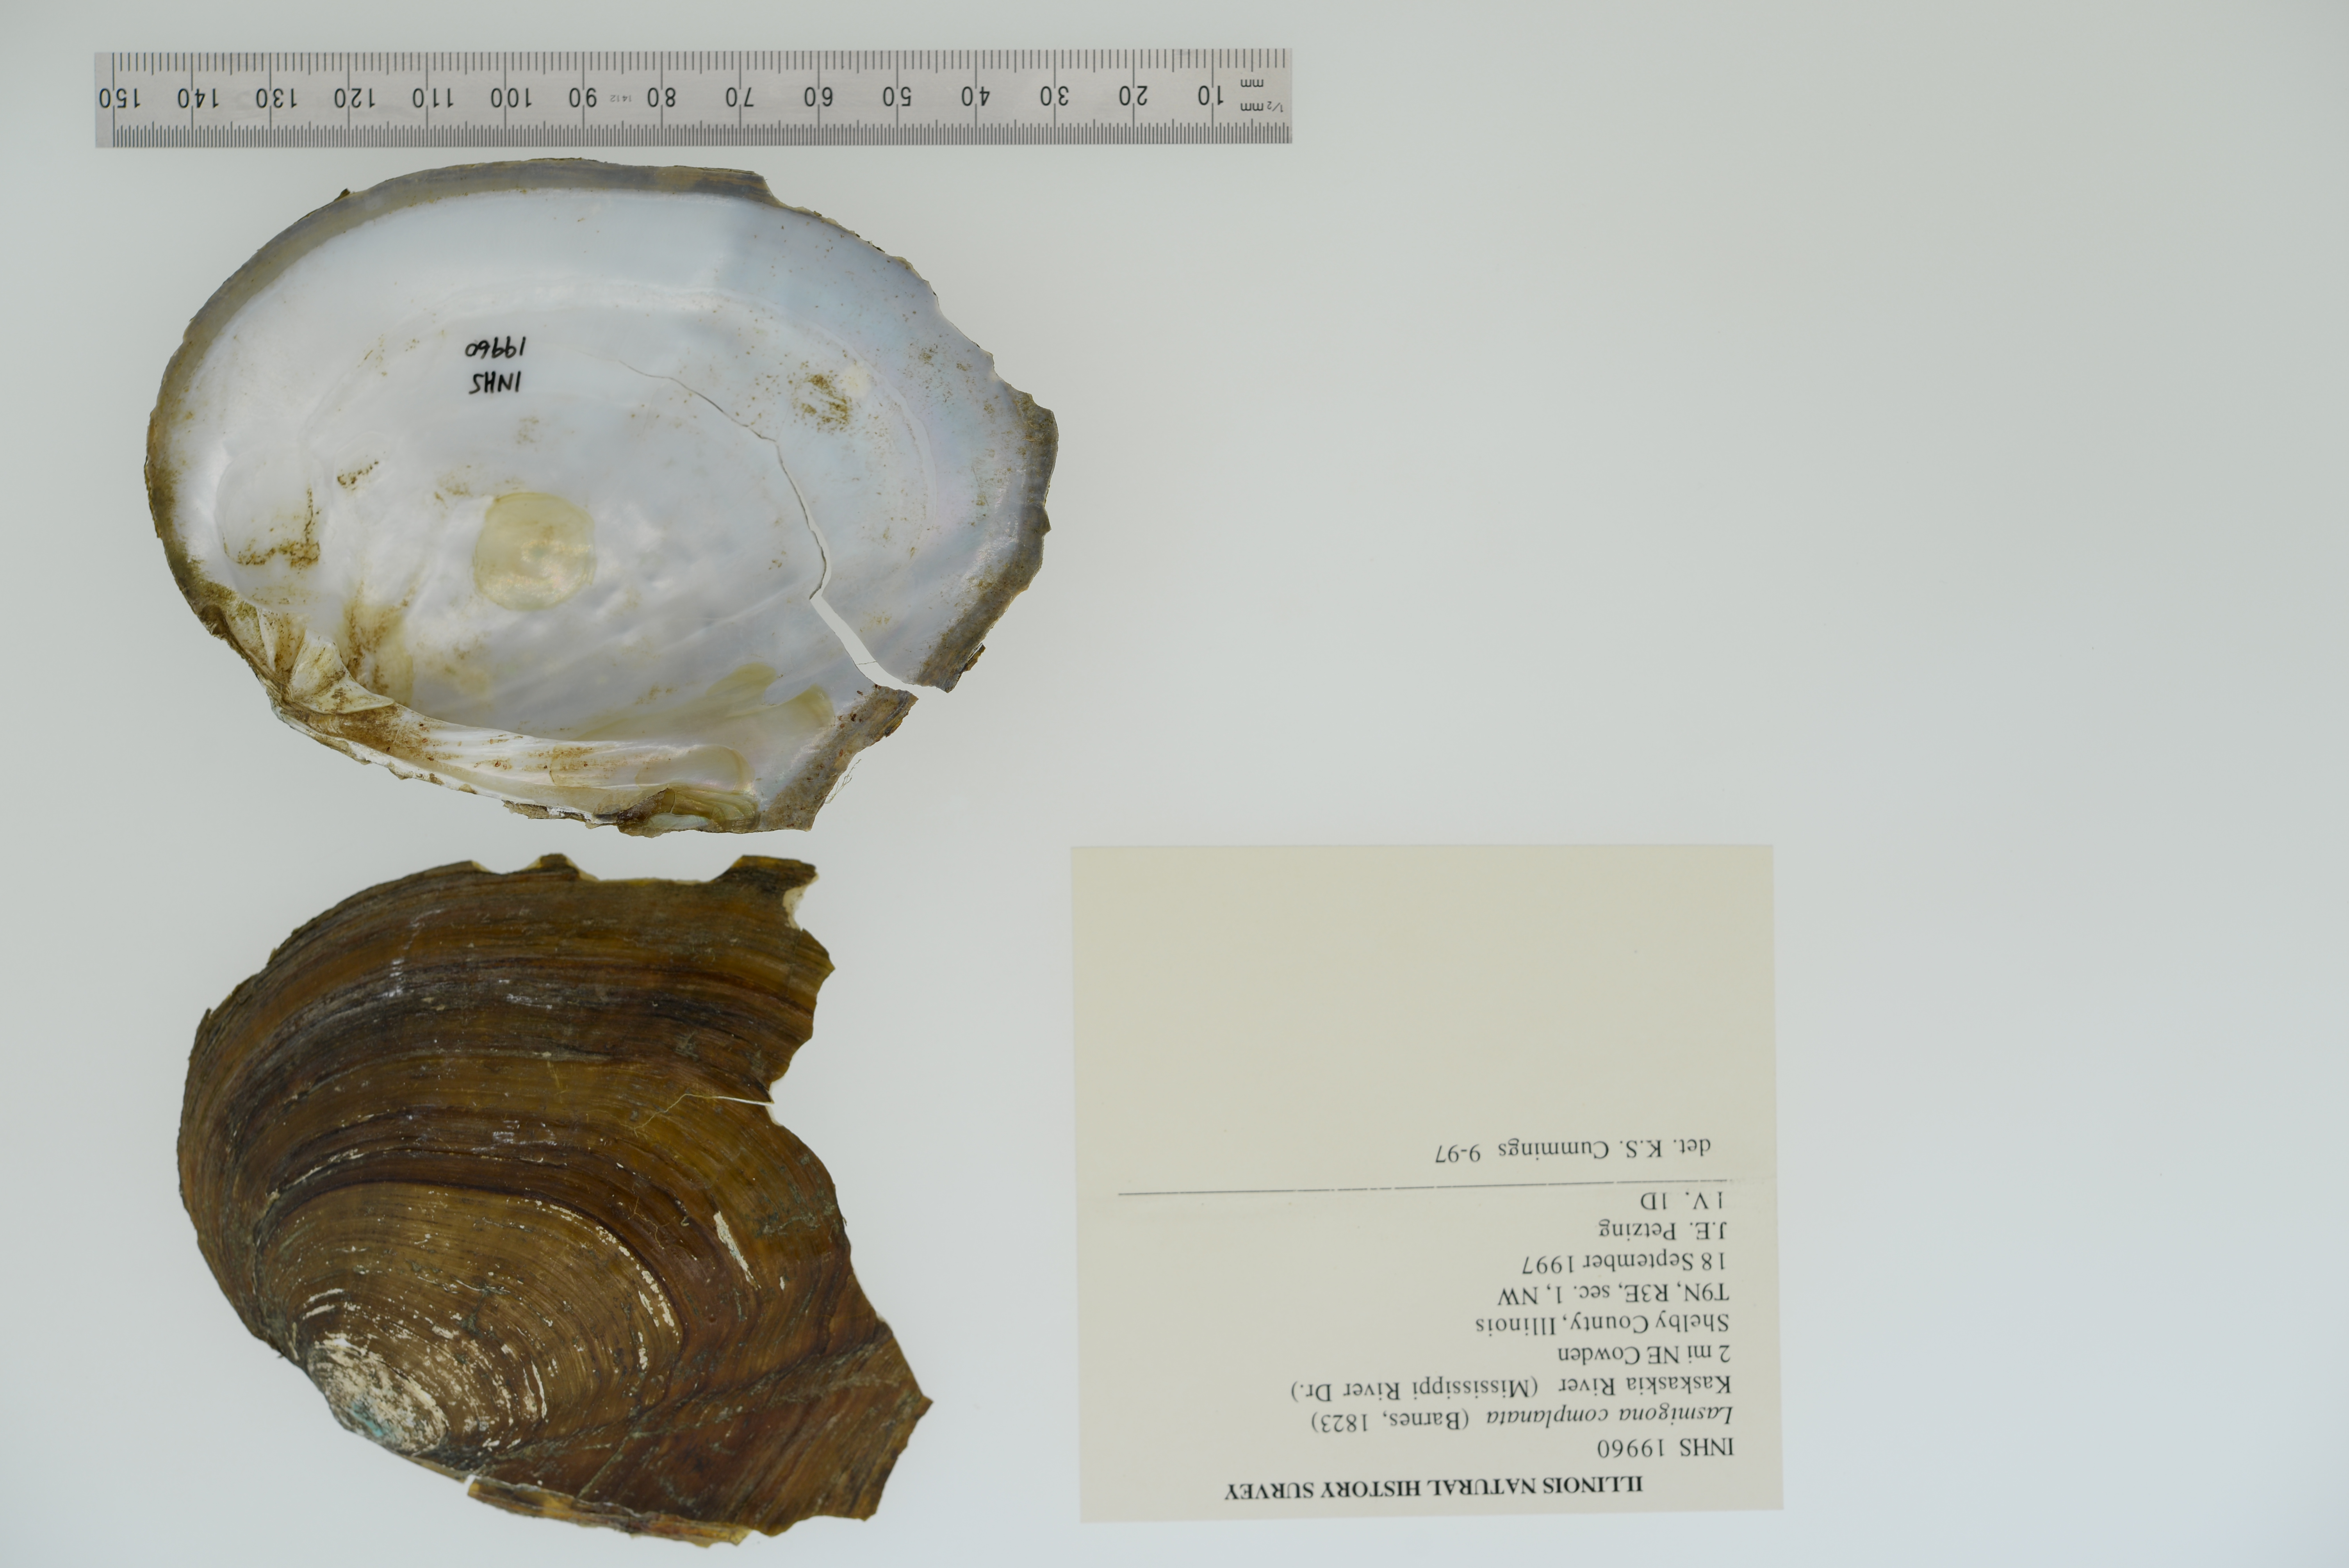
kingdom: Animalia
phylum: Mollusca
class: Bivalvia
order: Unionida
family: Unionidae
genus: Lasmigona
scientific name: Lasmigona complanata
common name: White heelsplitter
